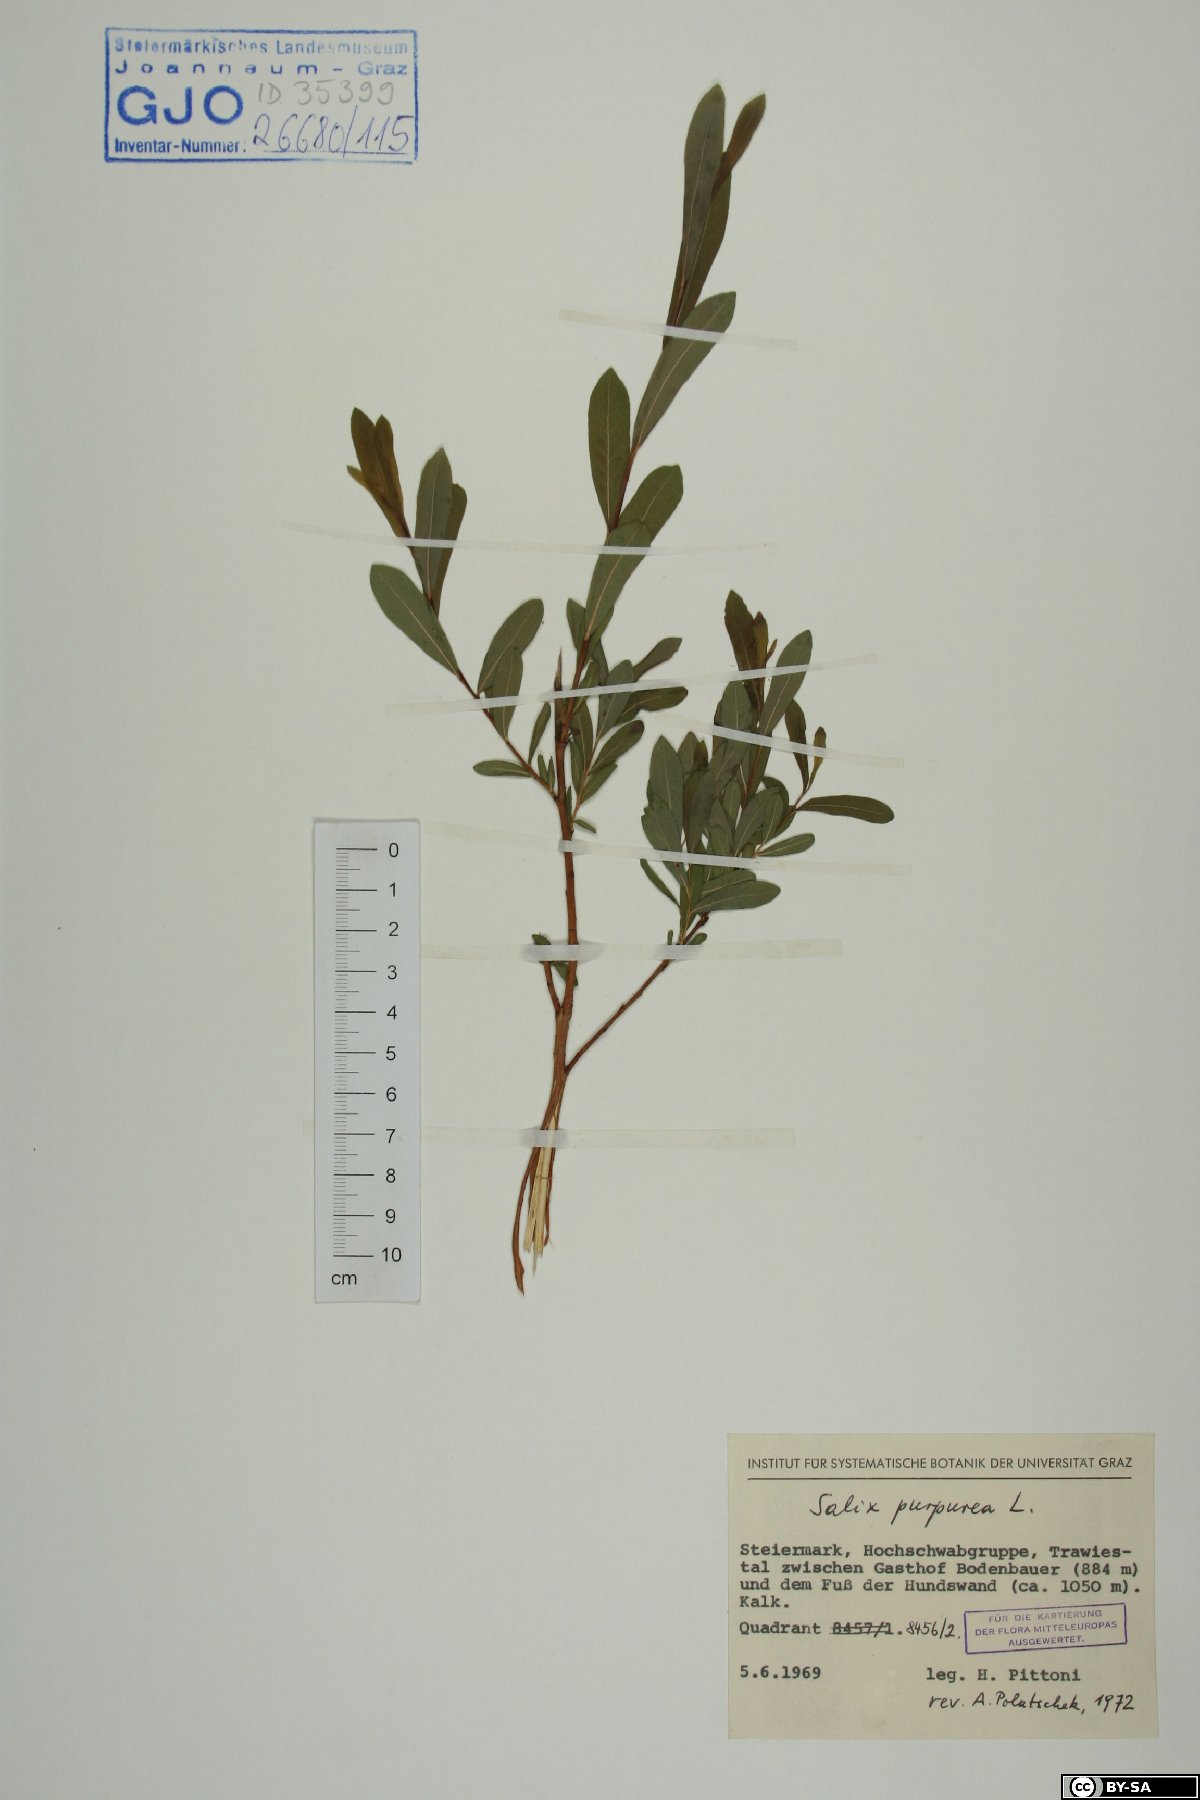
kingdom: Plantae
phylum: Tracheophyta
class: Magnoliopsida
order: Malpighiales
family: Salicaceae
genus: Salix
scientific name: Salix purpurea
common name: Purple willow
